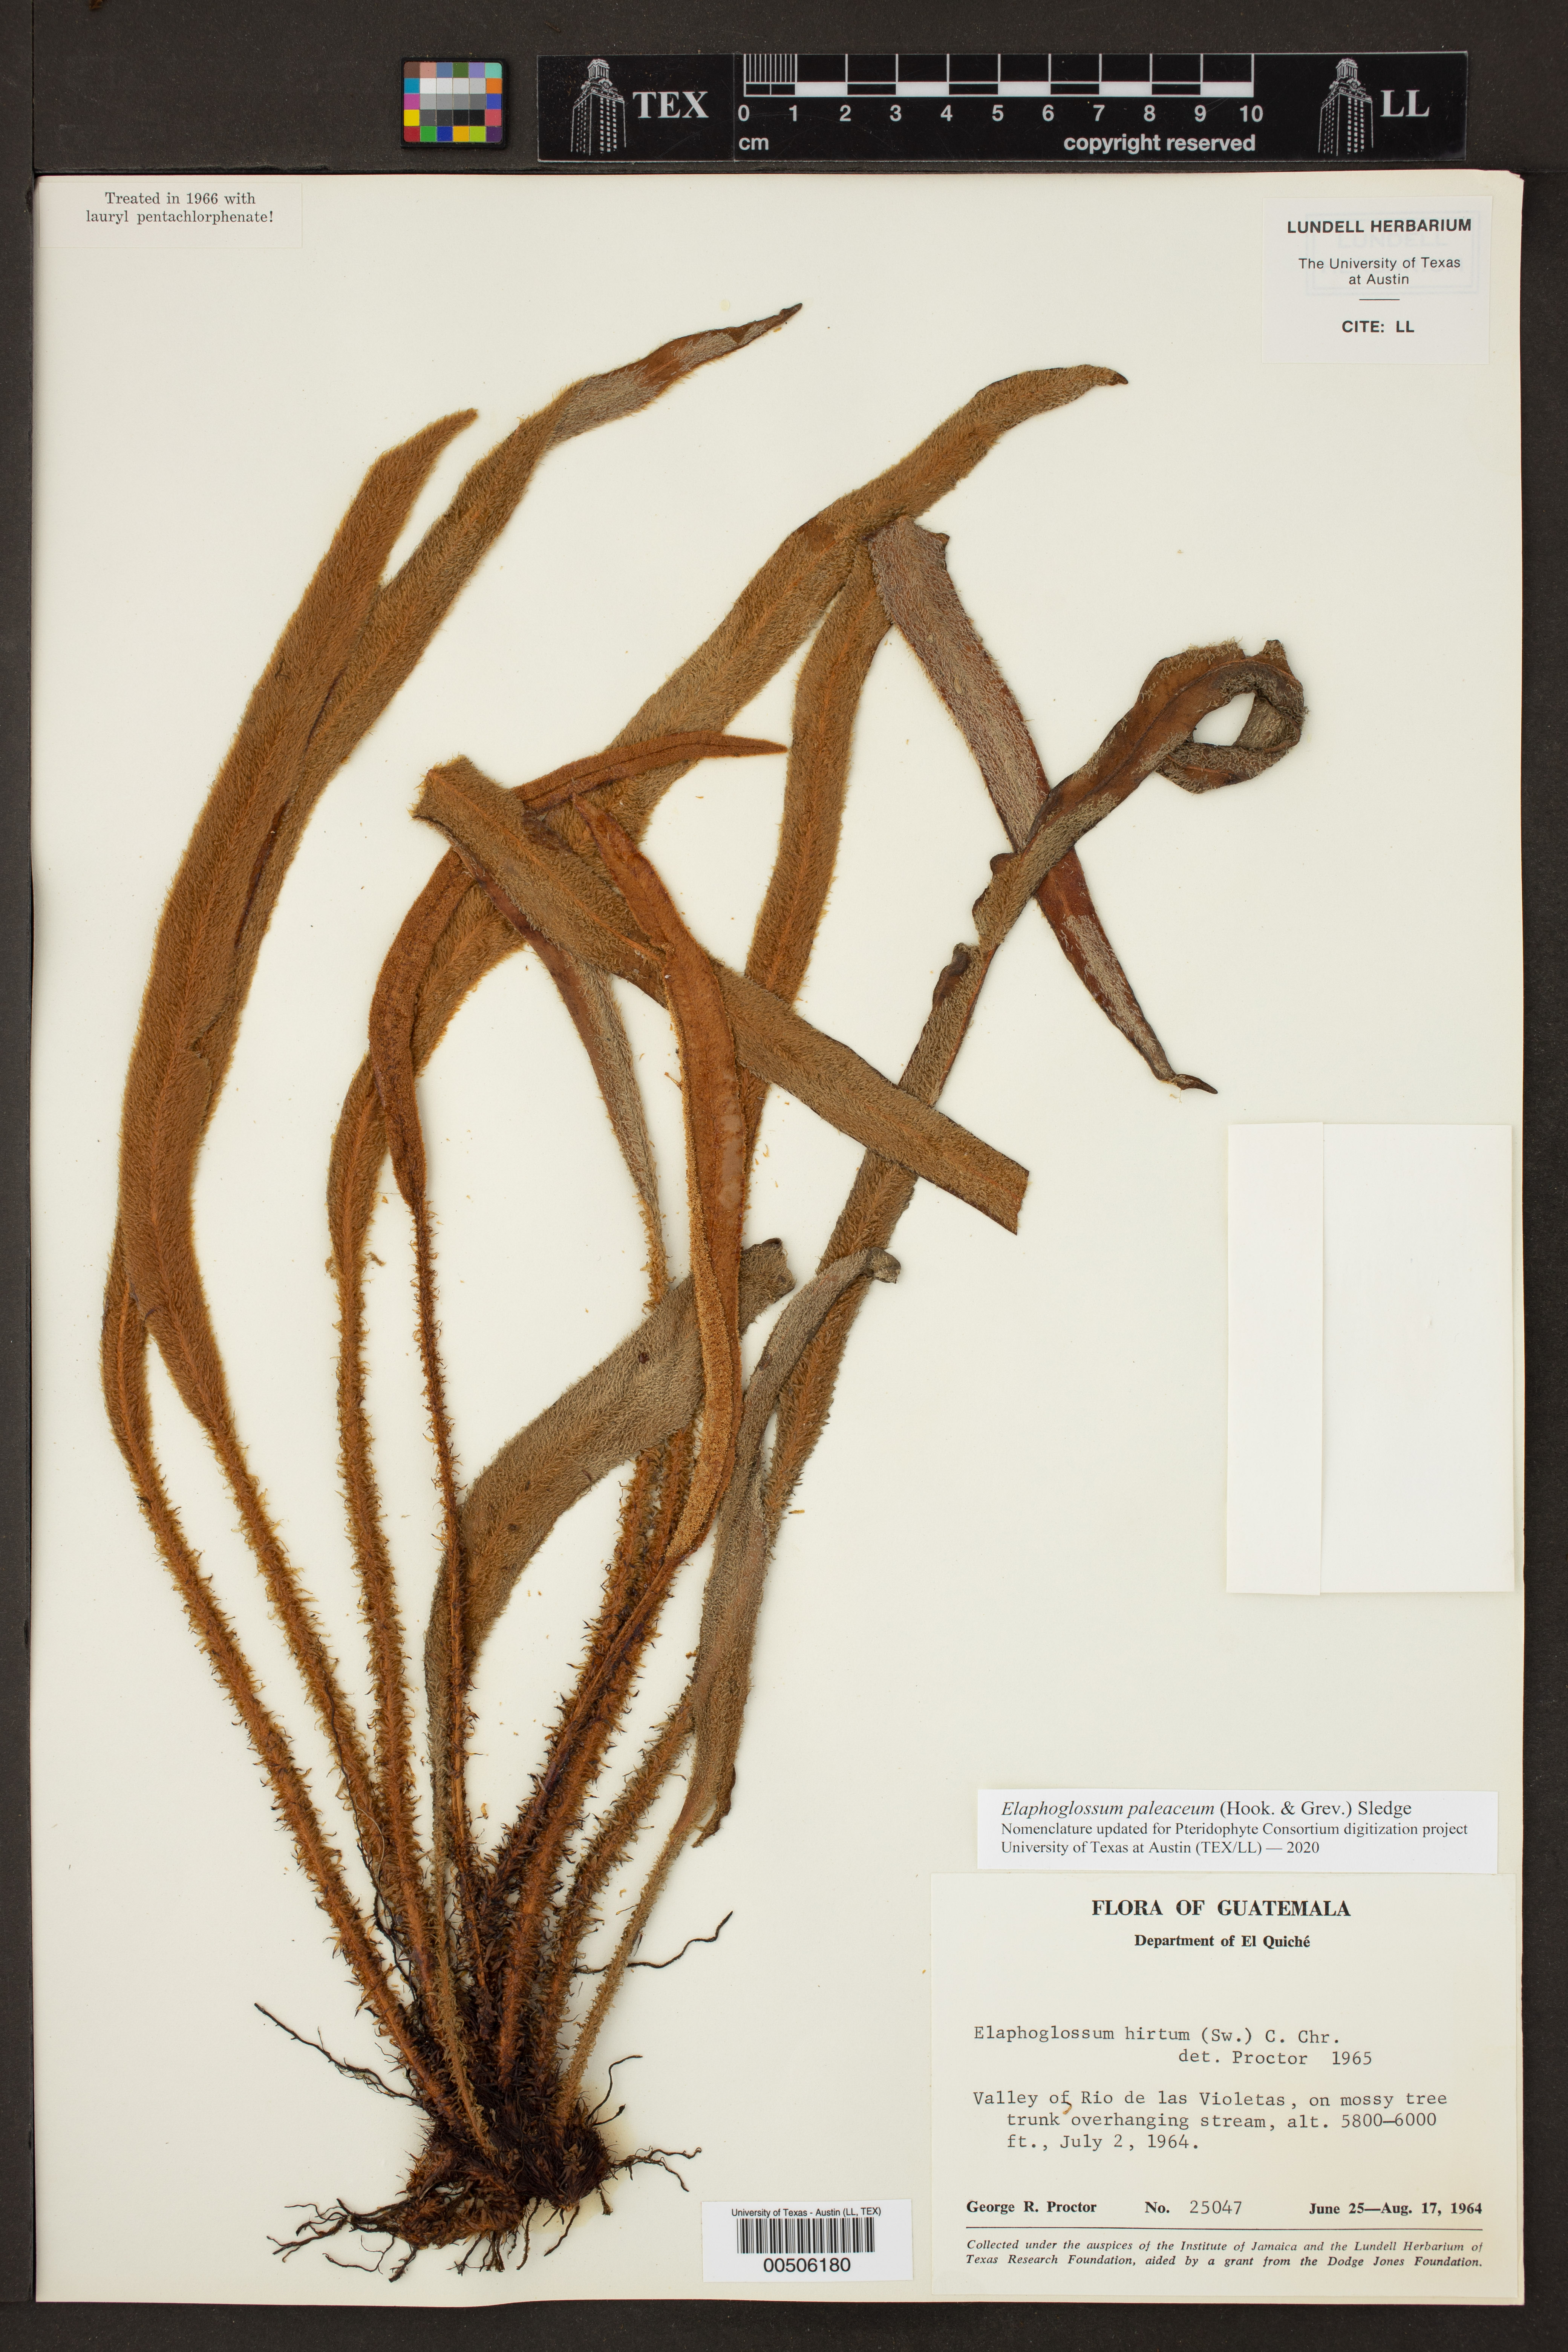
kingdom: Plantae
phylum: Tracheophyta
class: Polypodiopsida
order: Polypodiales
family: Dryopteridaceae
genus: Elaphoglossum
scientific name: Elaphoglossum paleaceum
